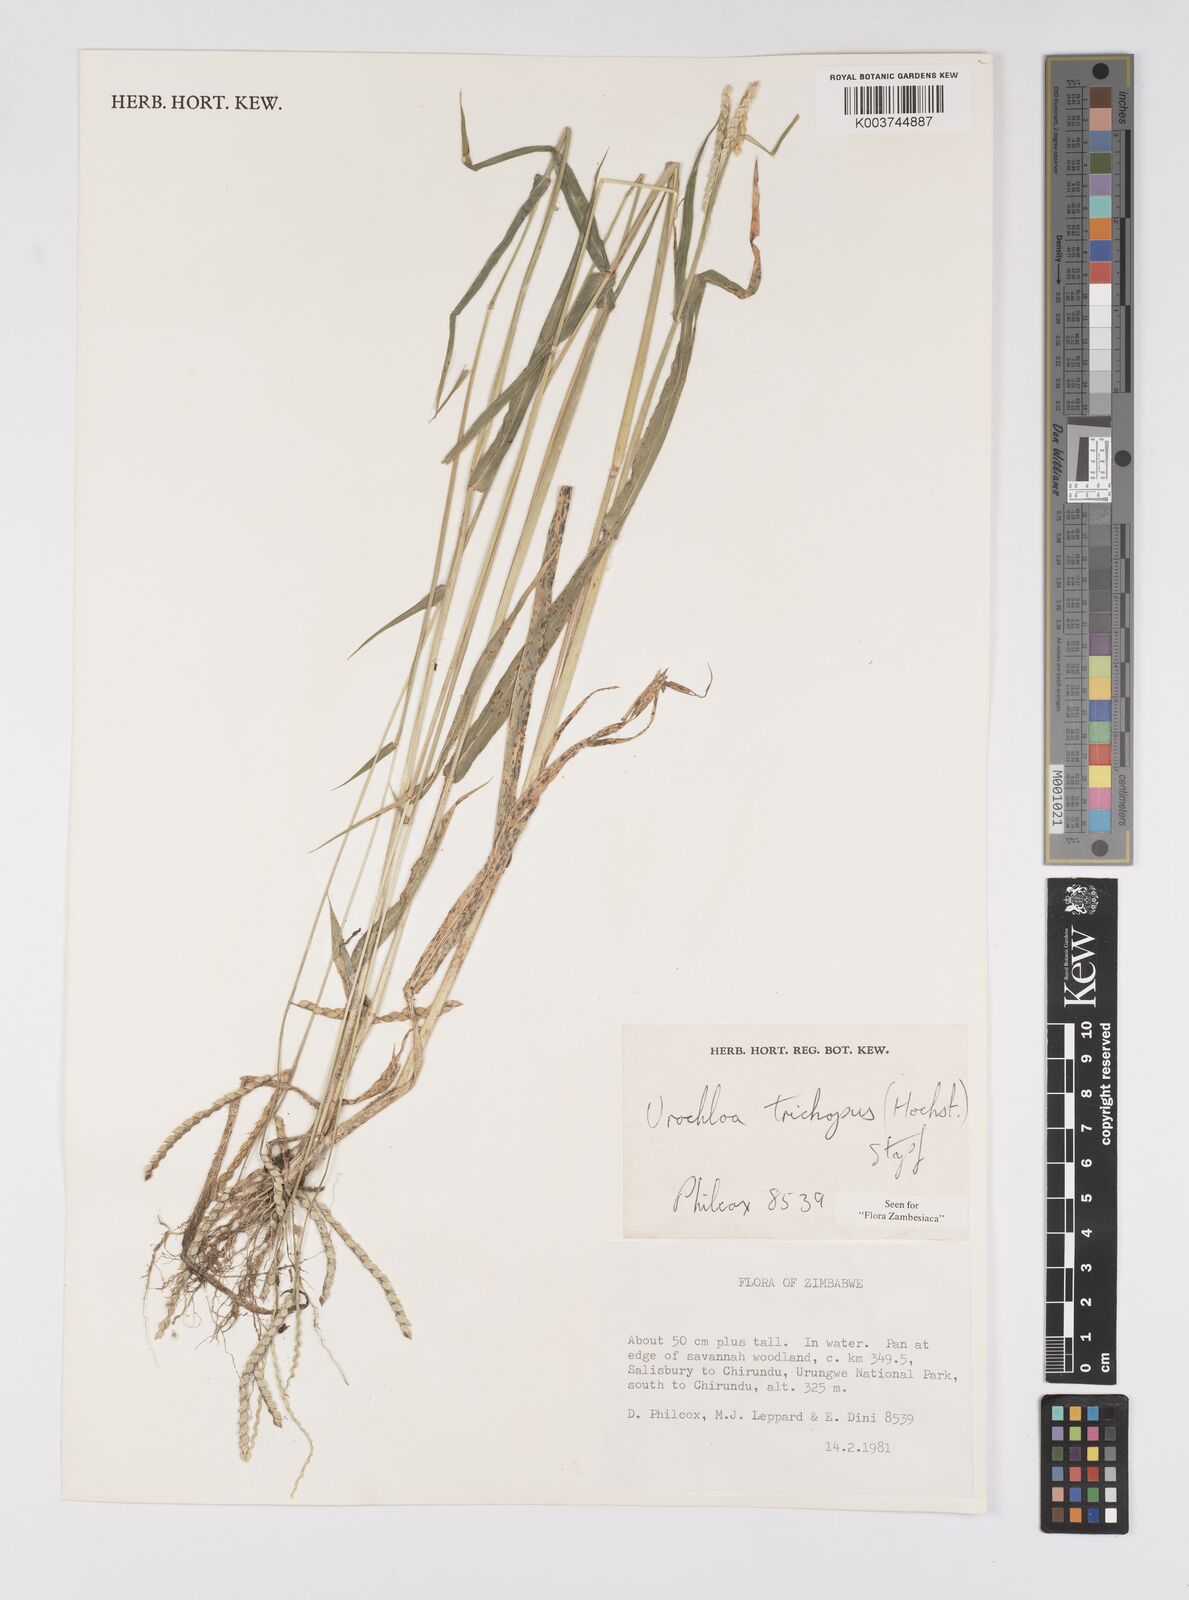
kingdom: Plantae
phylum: Tracheophyta
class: Liliopsida
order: Poales
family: Poaceae
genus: Urochloa
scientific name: Urochloa trichopus
